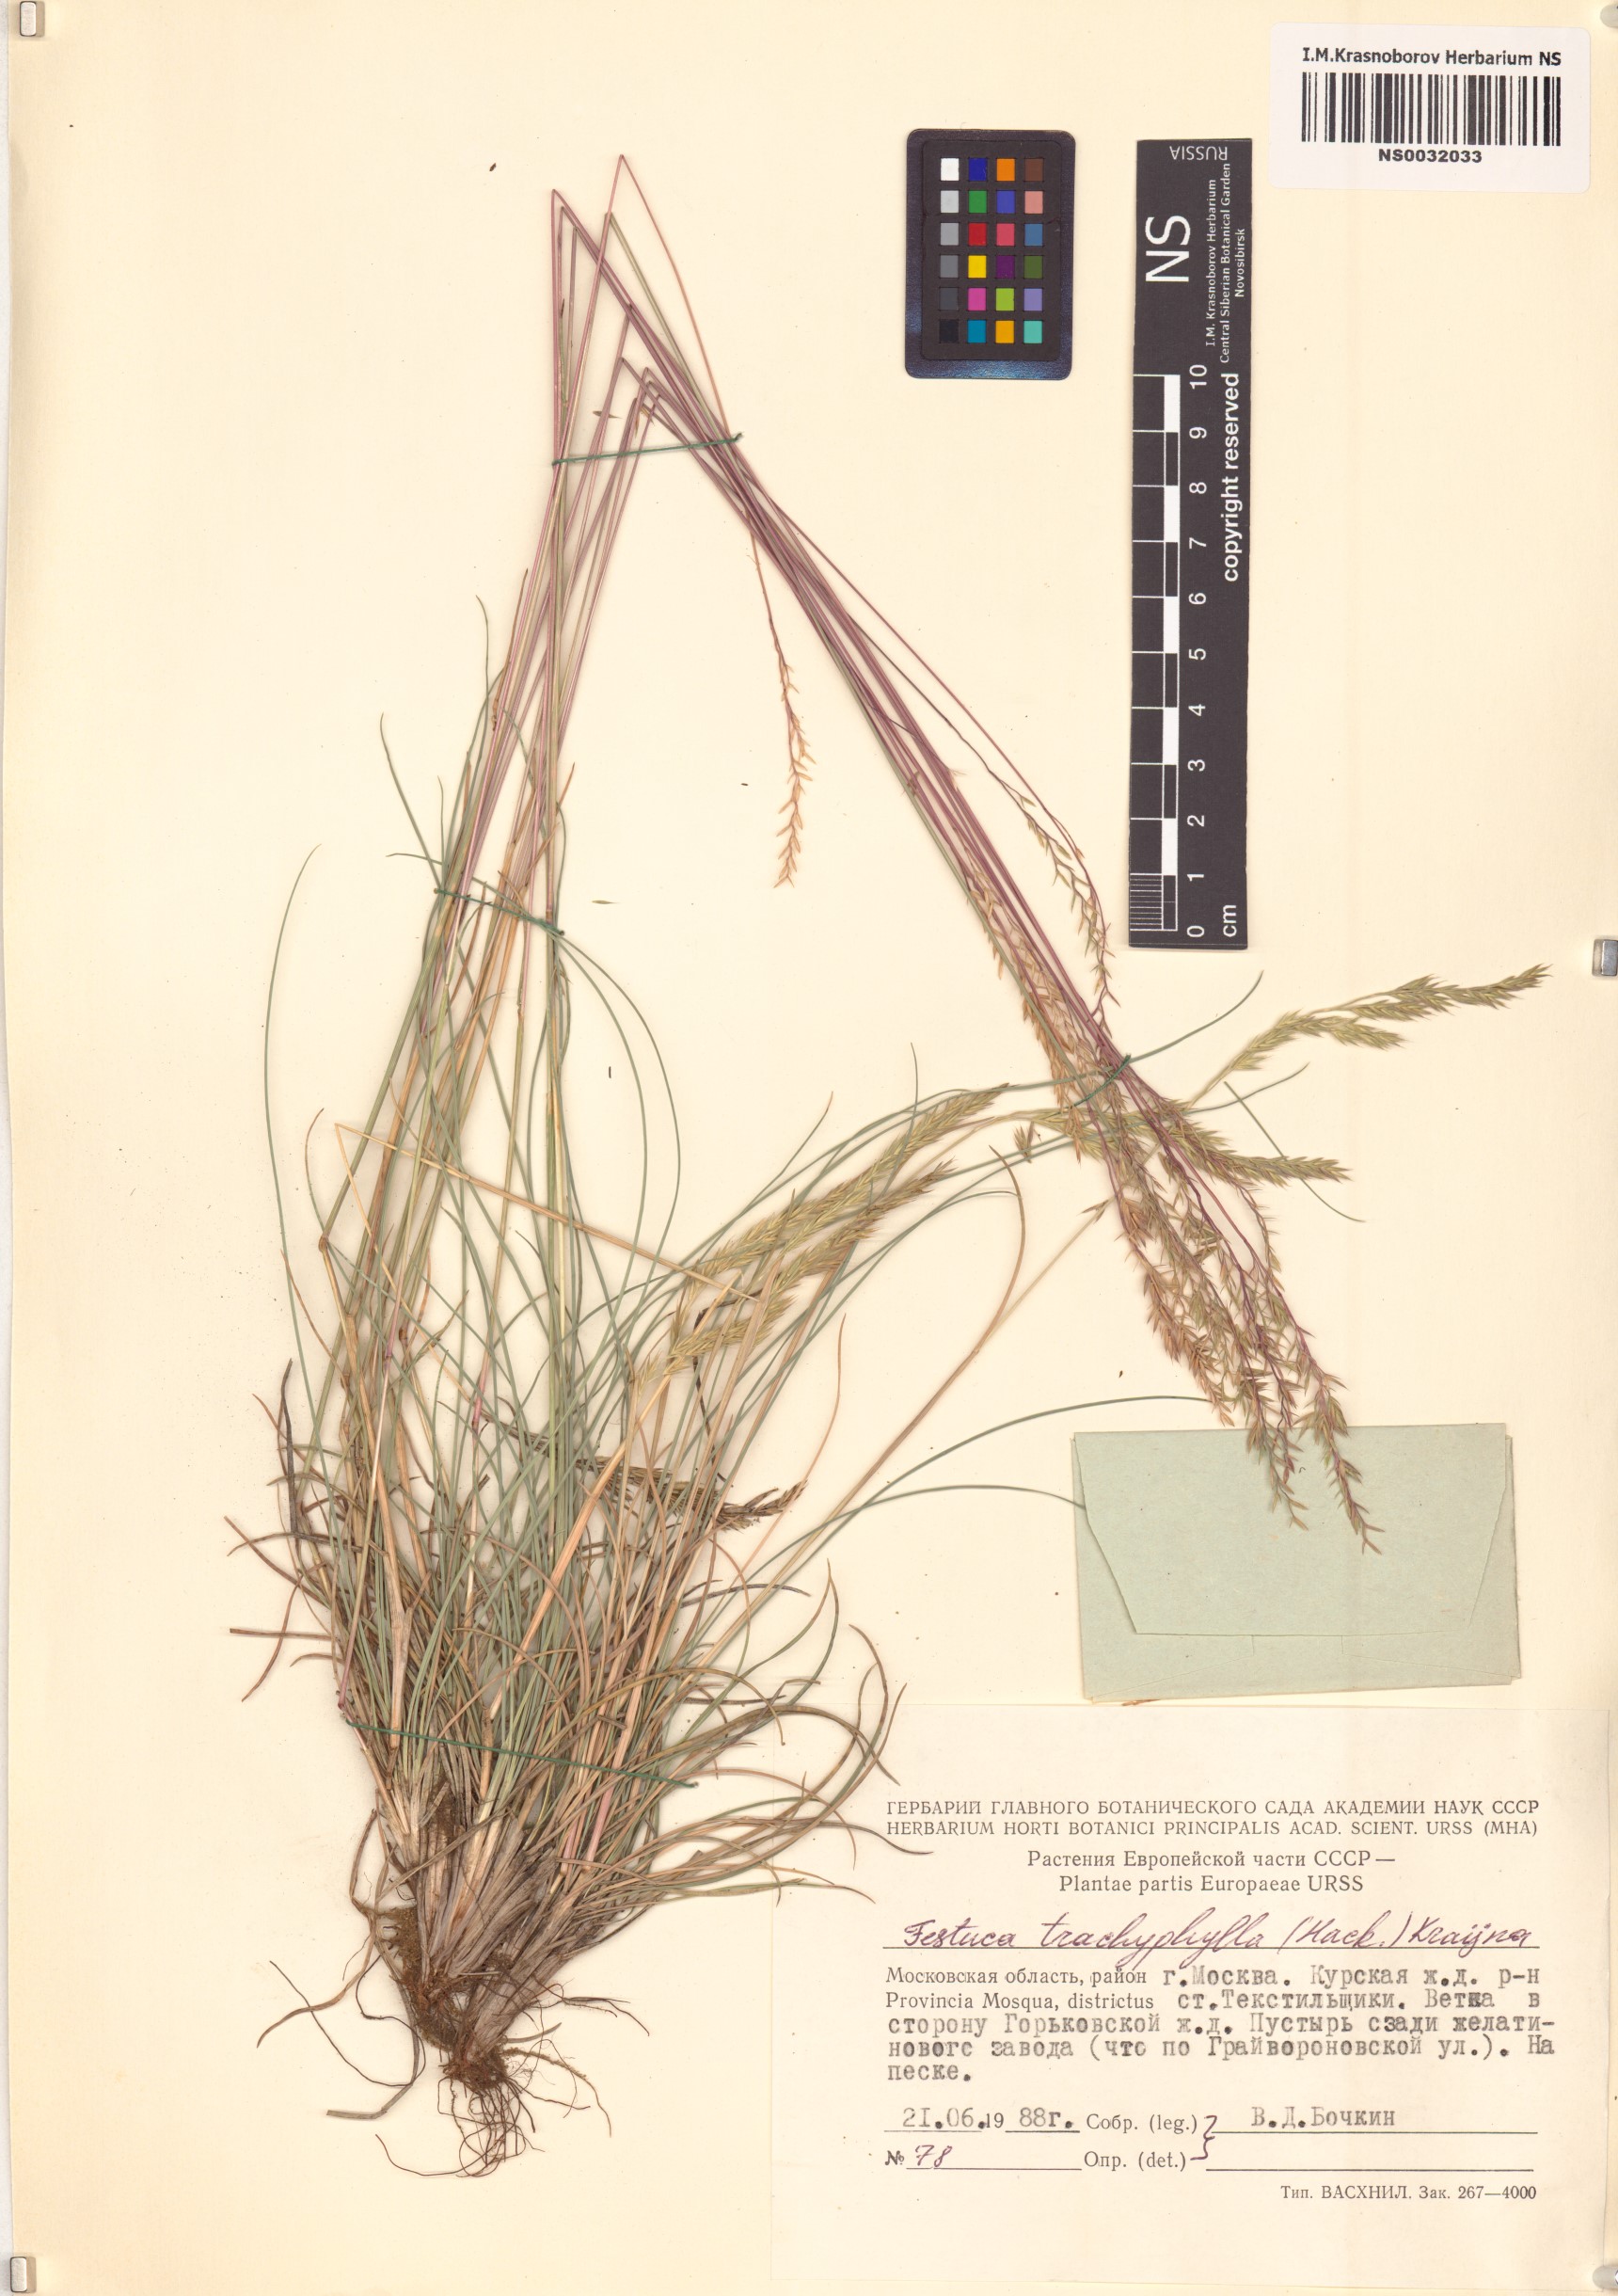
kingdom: Plantae
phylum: Tracheophyta
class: Liliopsida
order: Poales
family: Poaceae
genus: Festuca
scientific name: Festuca trachyphylla
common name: Hard fescue
